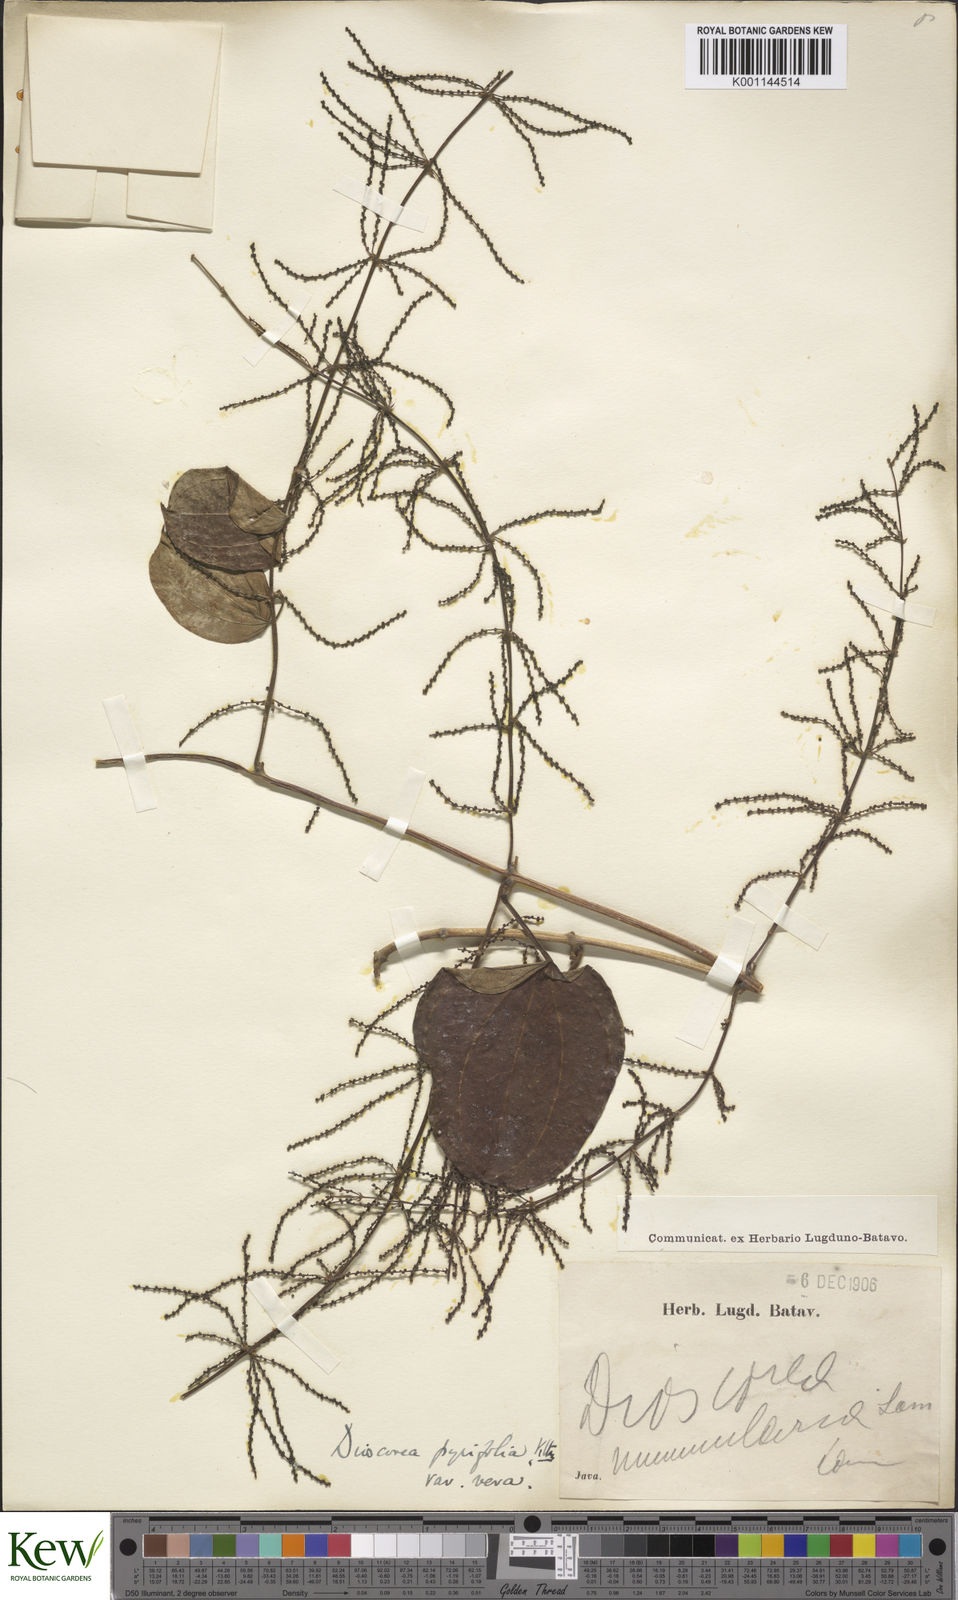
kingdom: Plantae
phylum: Tracheophyta
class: Liliopsida
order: Dioscoreales
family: Dioscoreaceae
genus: Dioscorea
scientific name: Dioscorea pyrifolia
